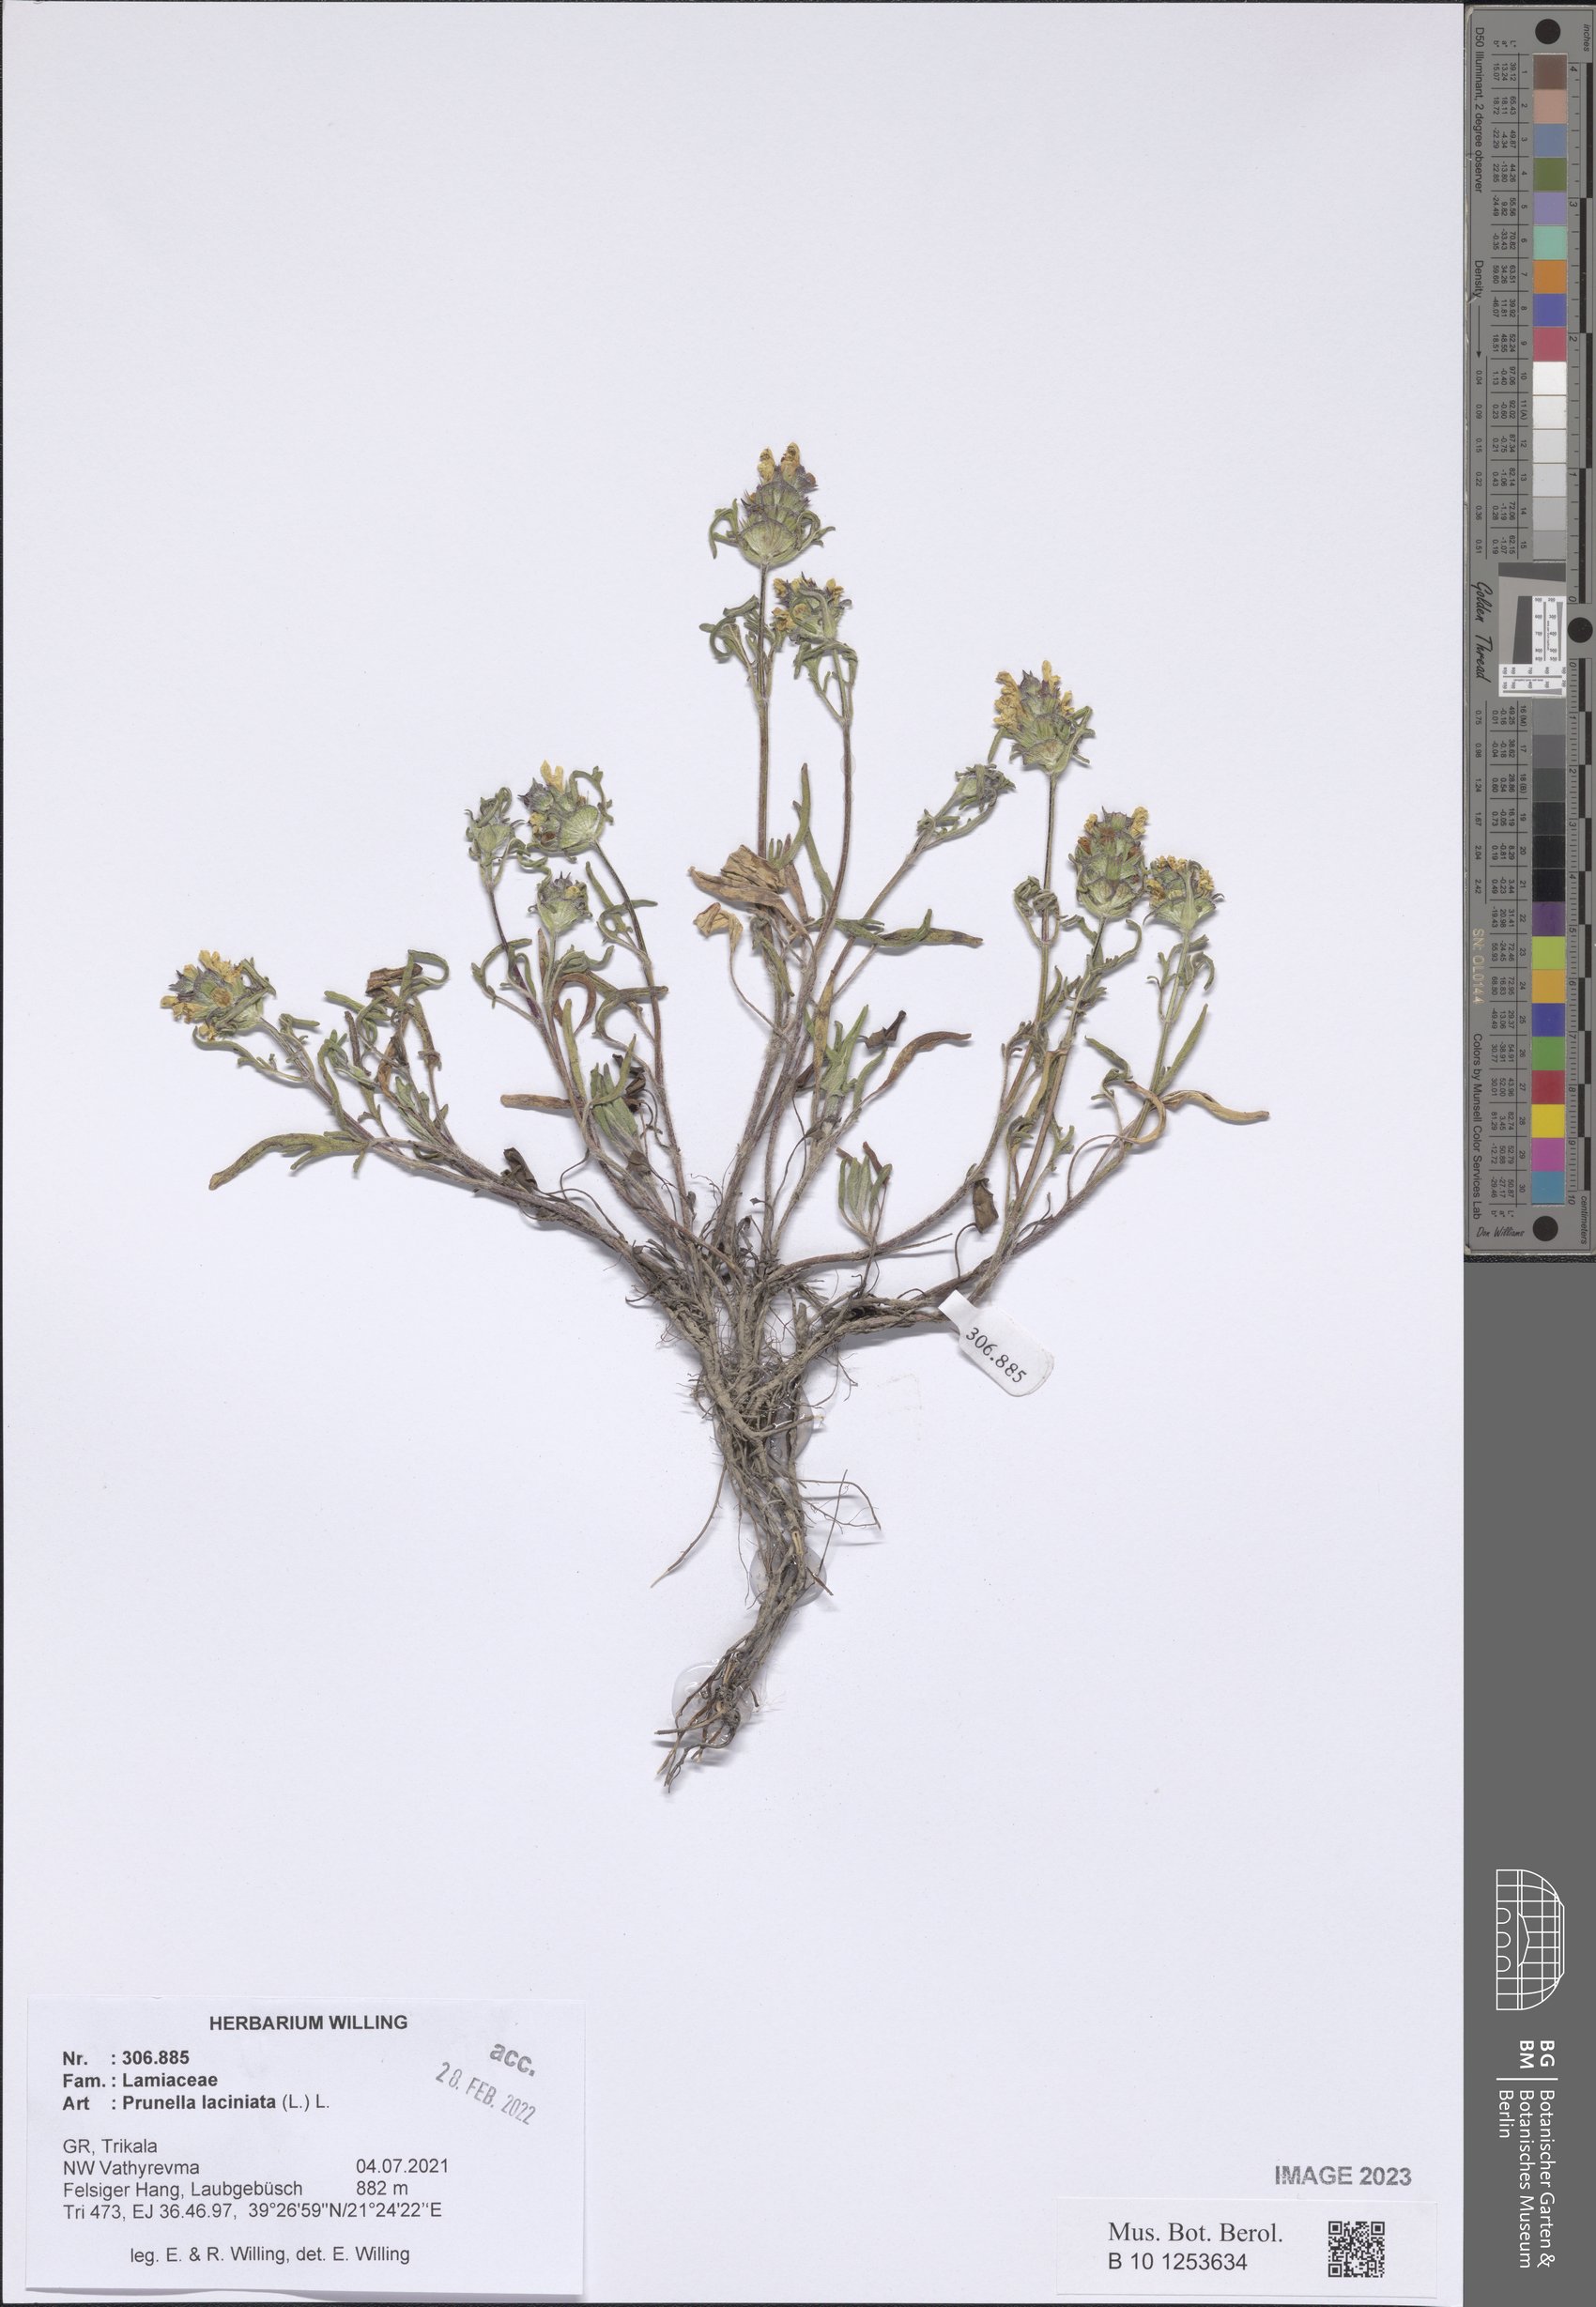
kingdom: Plantae
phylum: Tracheophyta
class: Magnoliopsida
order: Lamiales
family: Lamiaceae
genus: Prunella
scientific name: Prunella laciniata
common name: Cut-leaved selfheal
